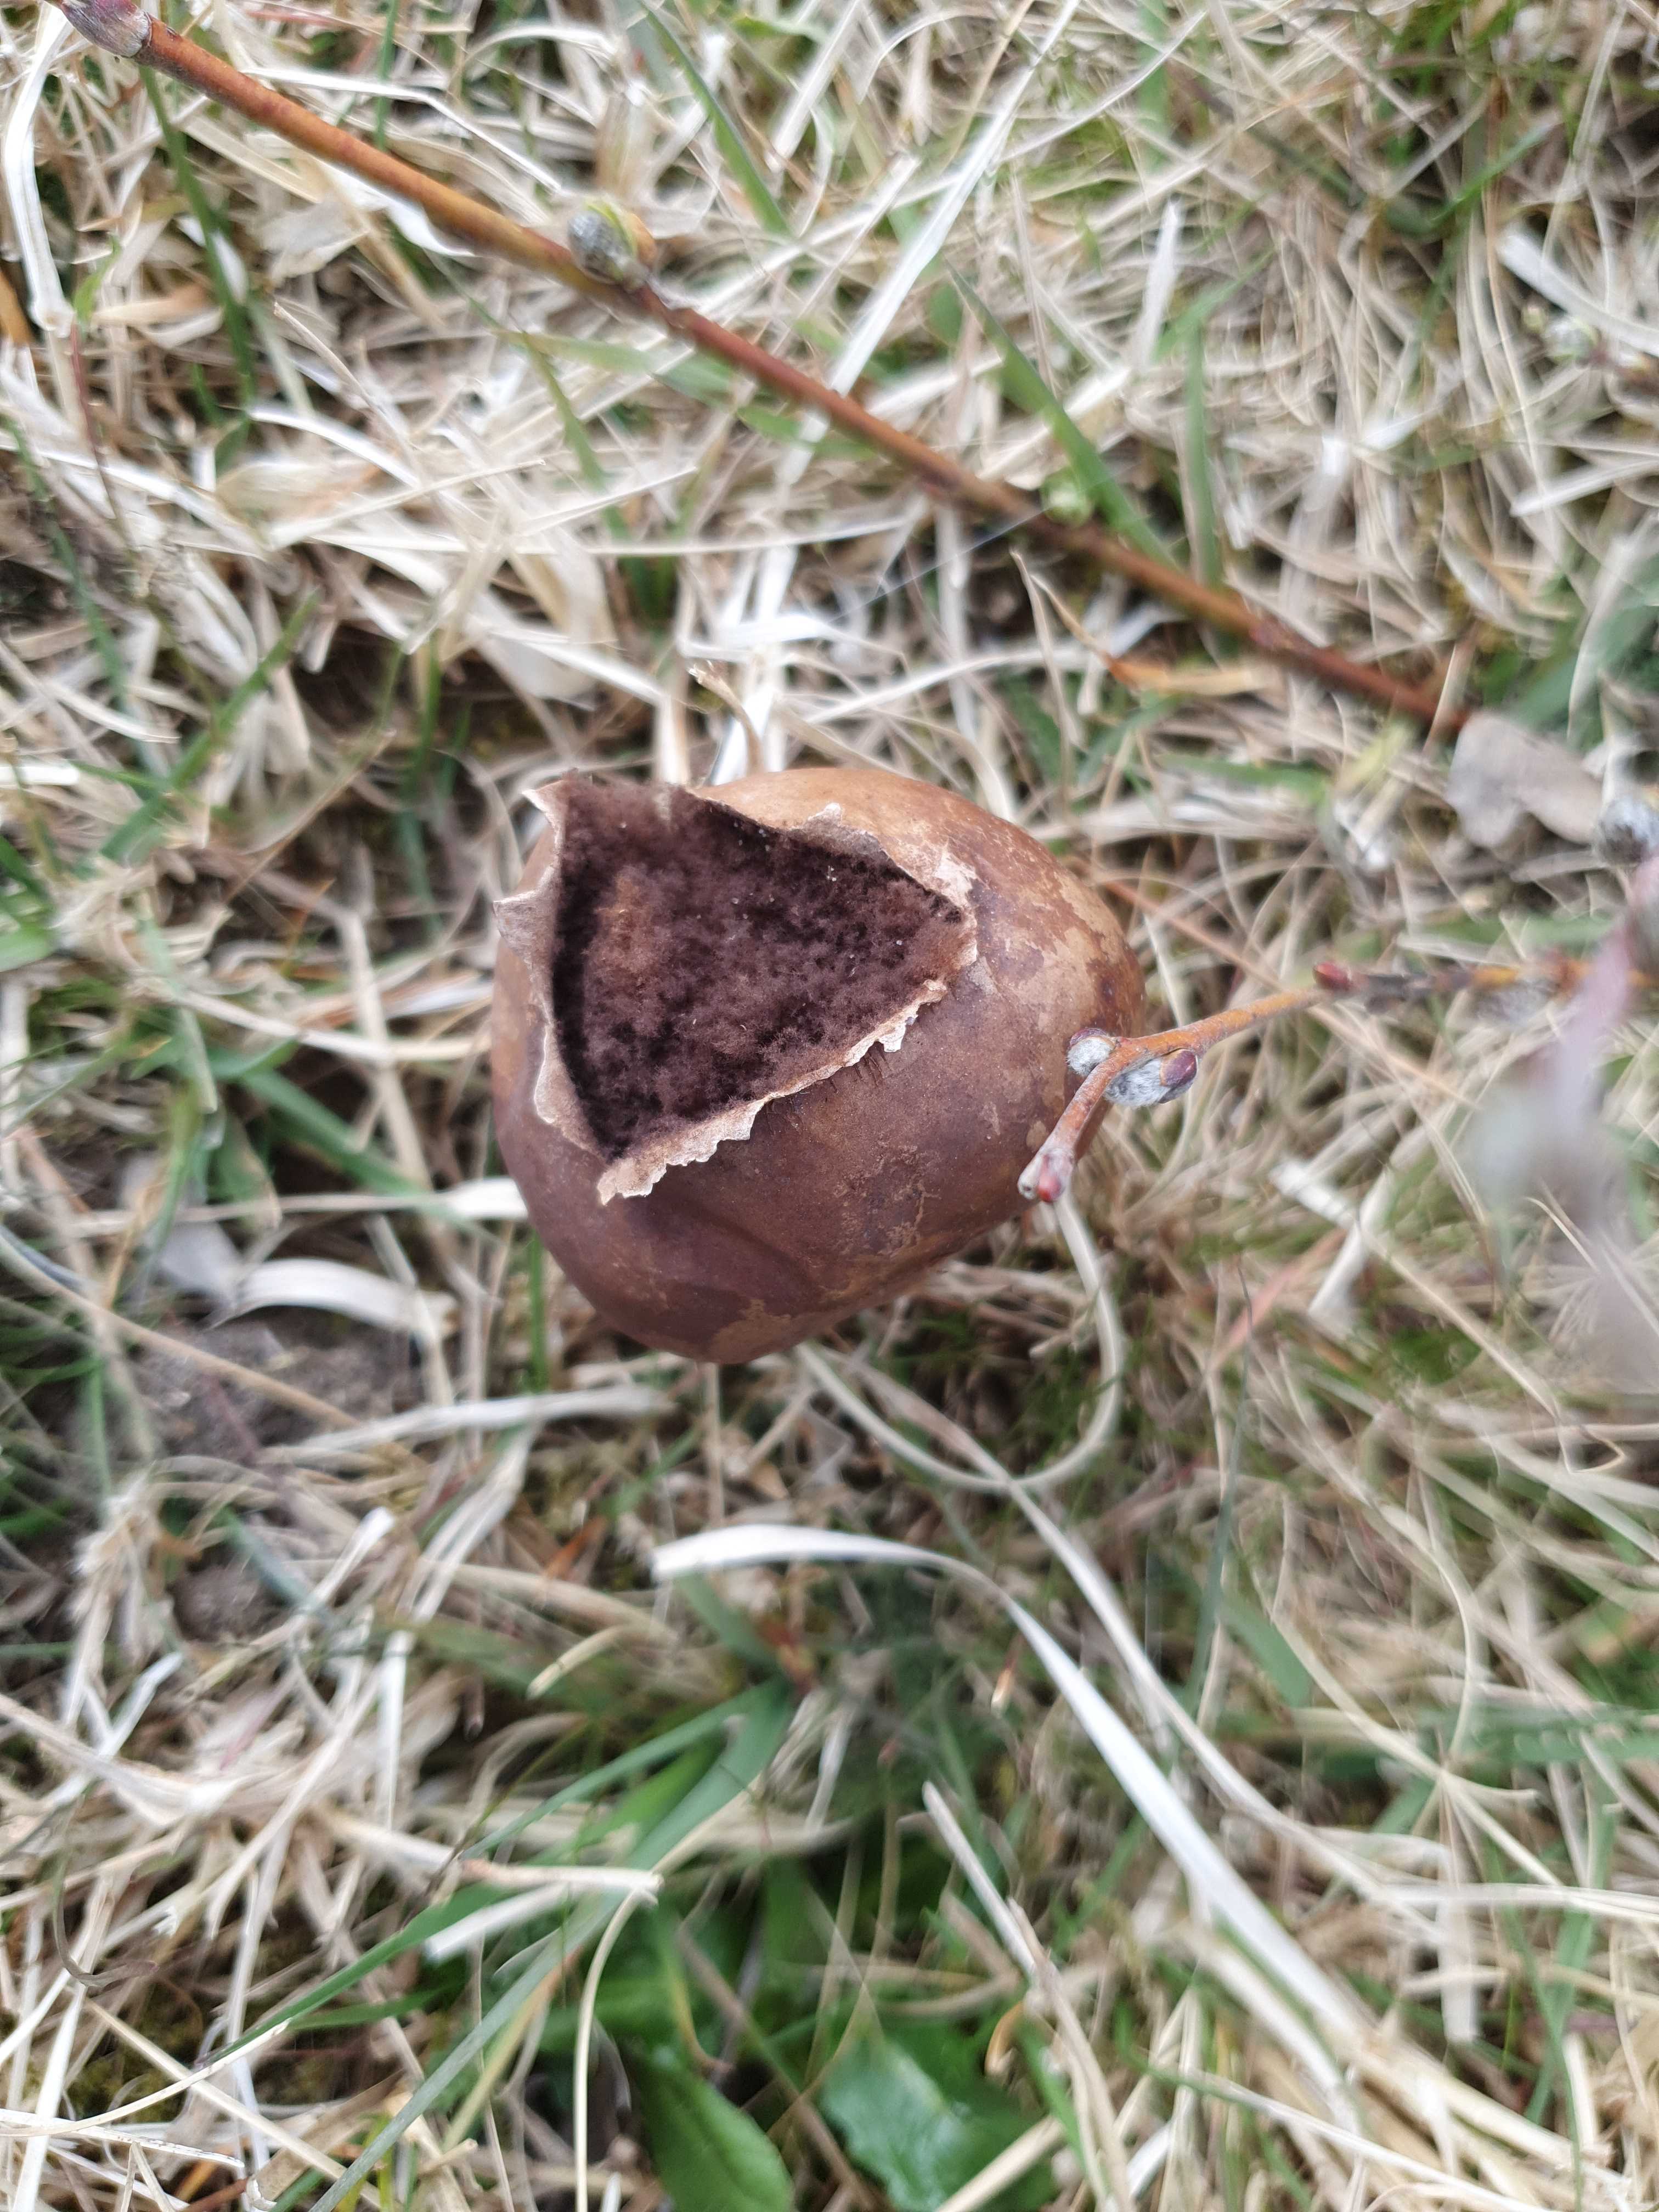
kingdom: Fungi
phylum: Basidiomycota
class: Agaricomycetes
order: Agaricales
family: Lycoperdaceae
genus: Bovista
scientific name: Bovista nigrescens
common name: sortagtig bovist
